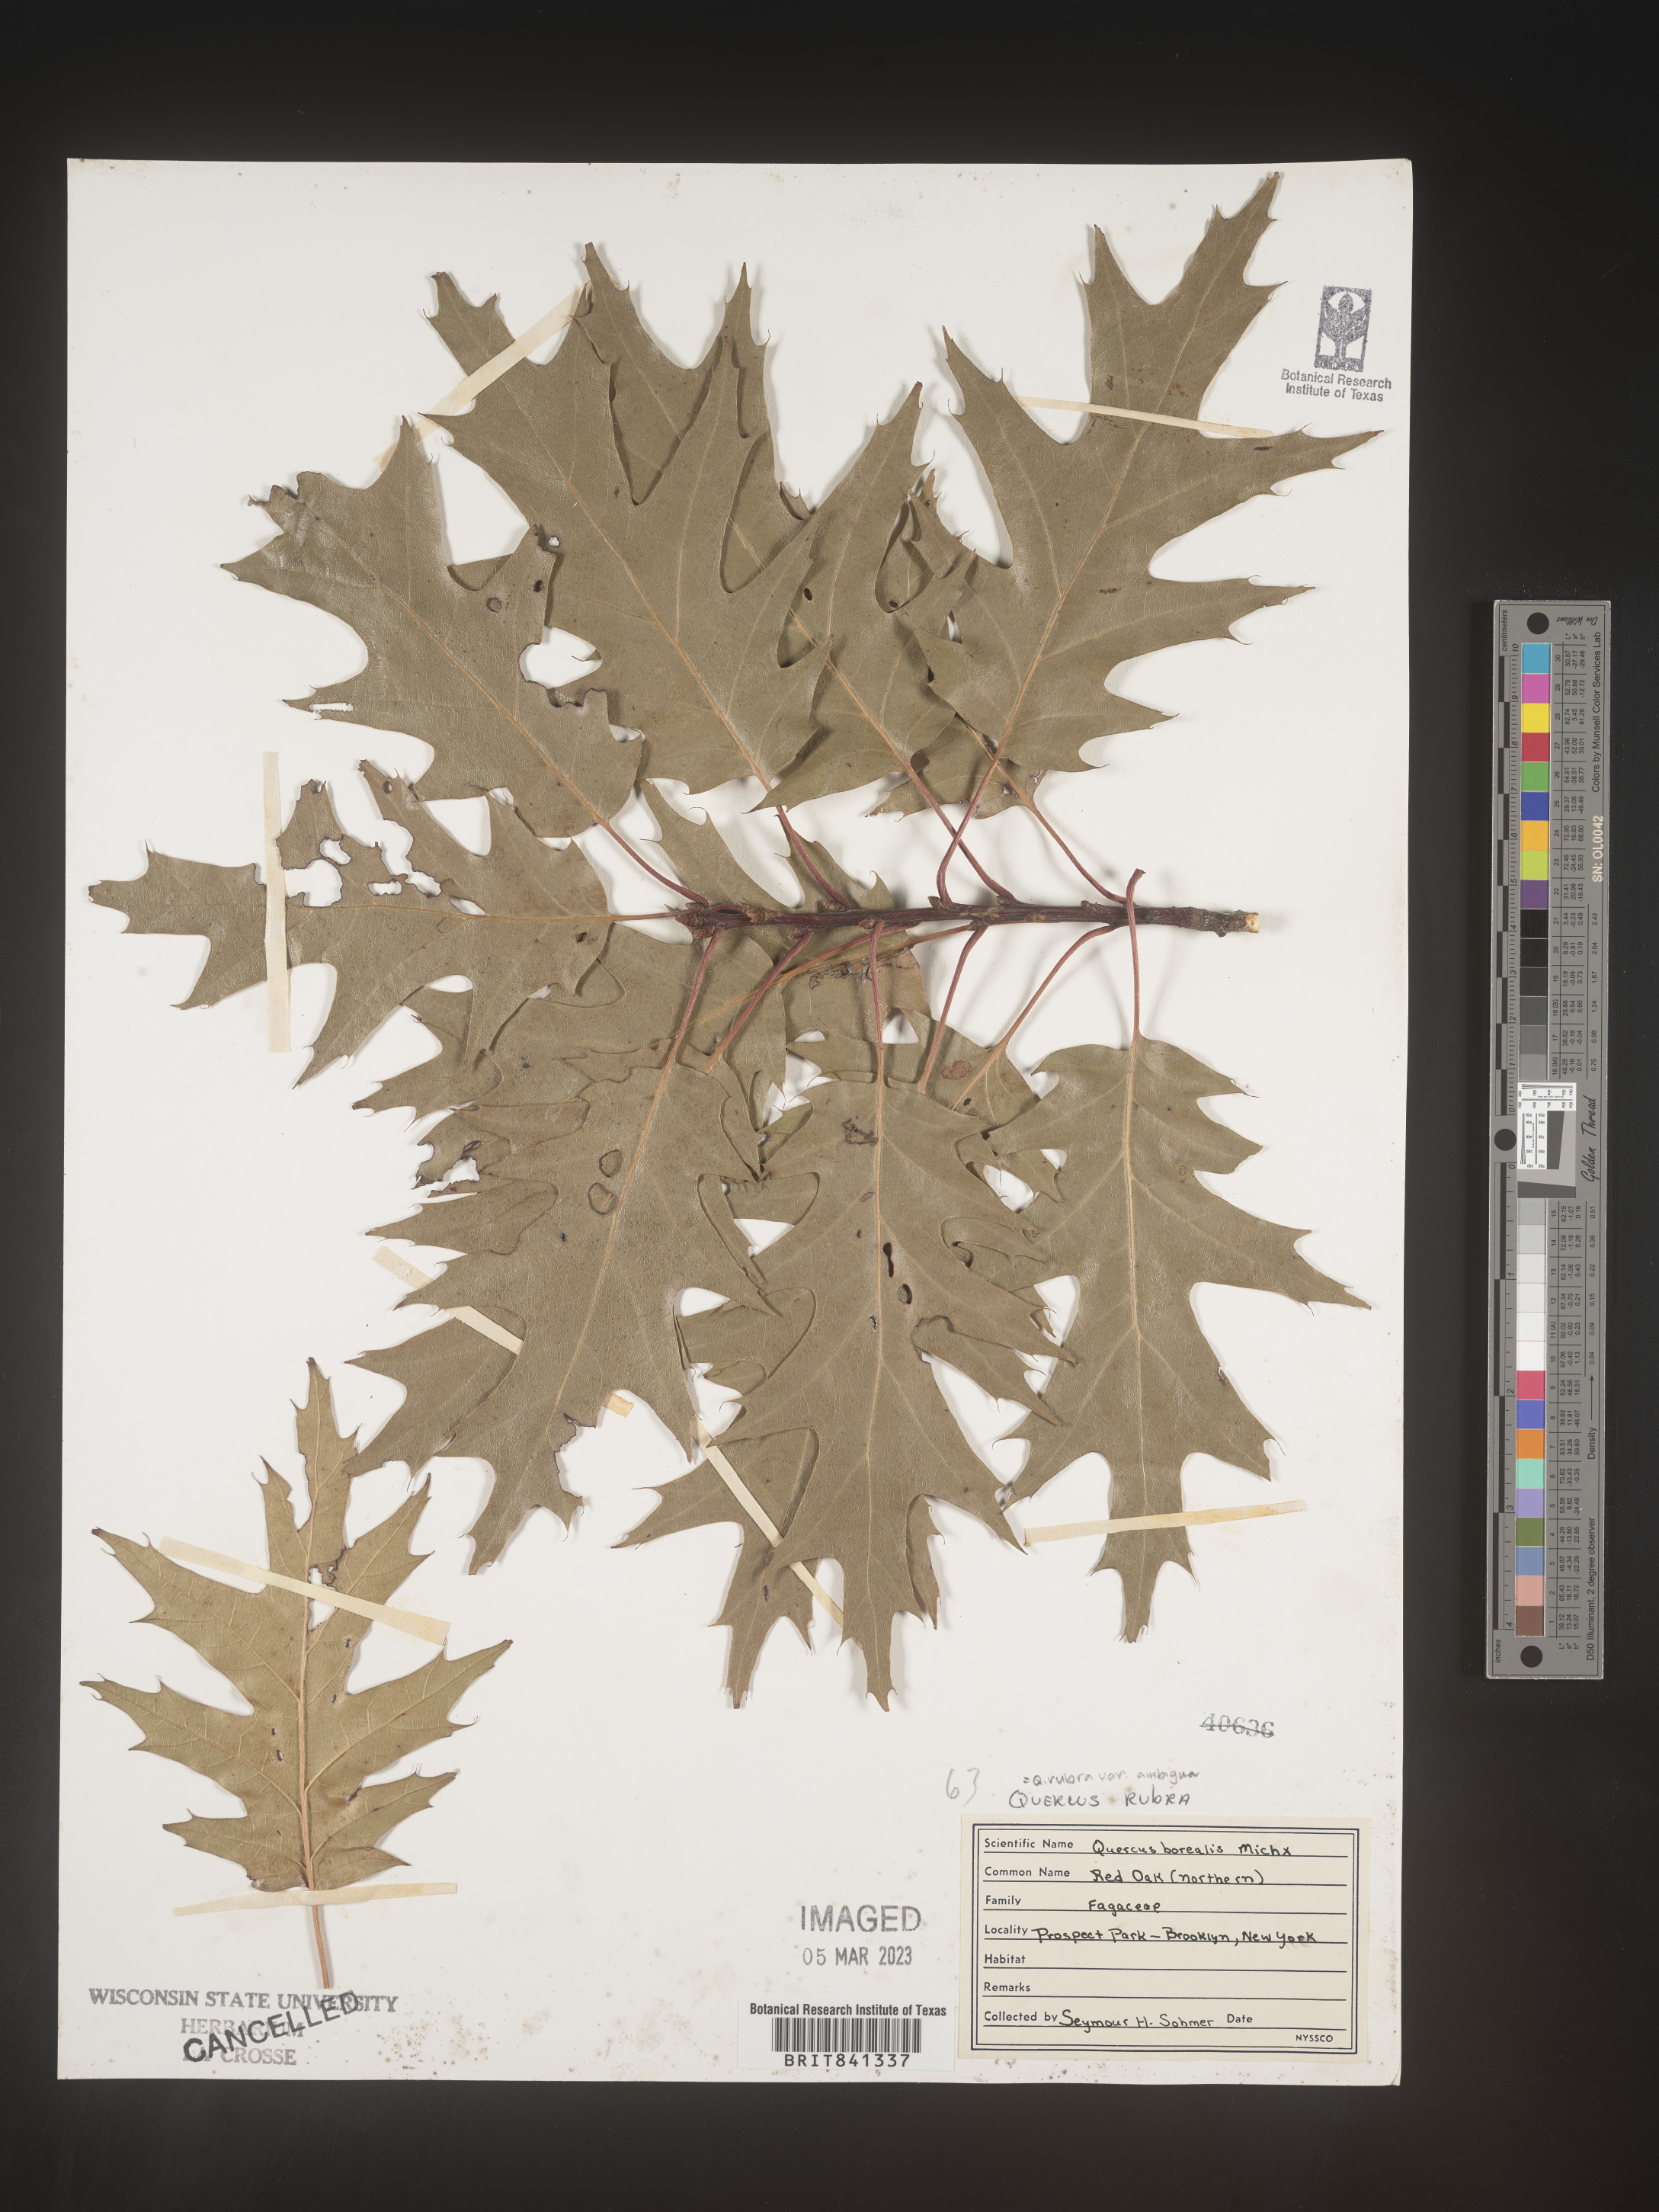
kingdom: Plantae
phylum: Tracheophyta
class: Magnoliopsida
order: Fagales
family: Fagaceae
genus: Quercus
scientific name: Quercus rubra
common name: Red oak
